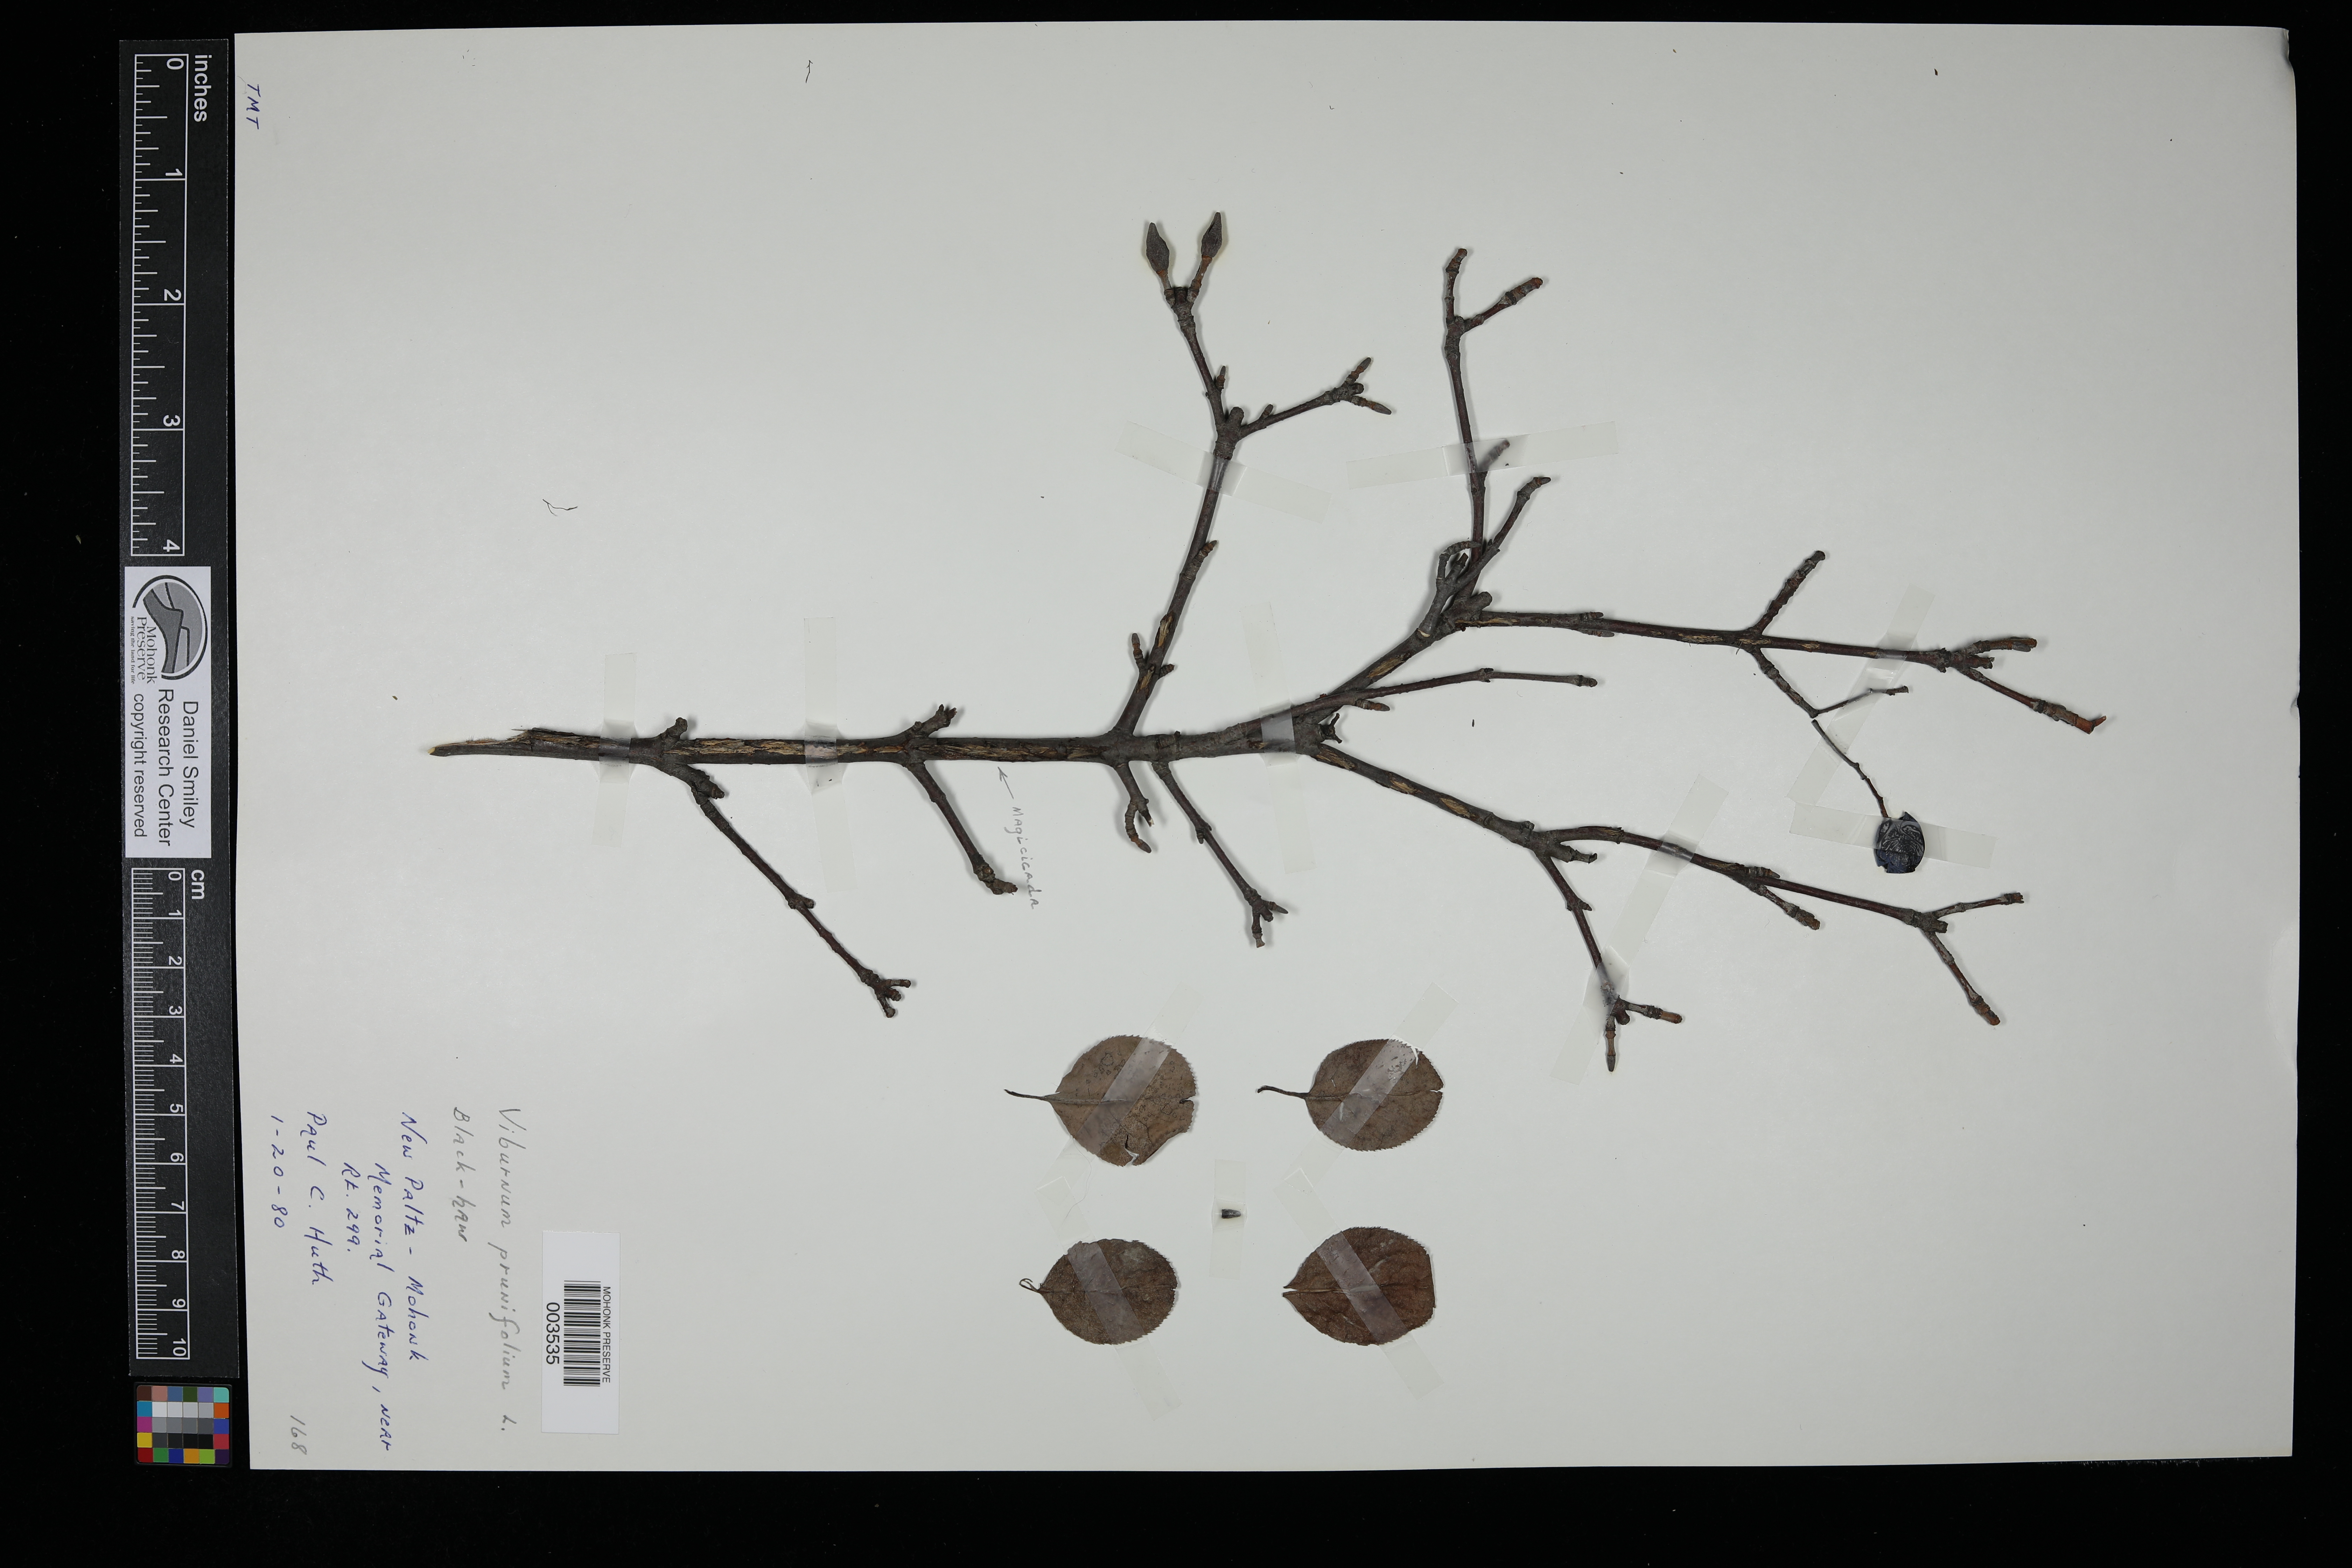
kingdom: Plantae
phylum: Tracheophyta
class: Magnoliopsida
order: Dipsacales
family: Viburnaceae
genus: Viburnum
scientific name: Viburnum prunifolium
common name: Black haw
